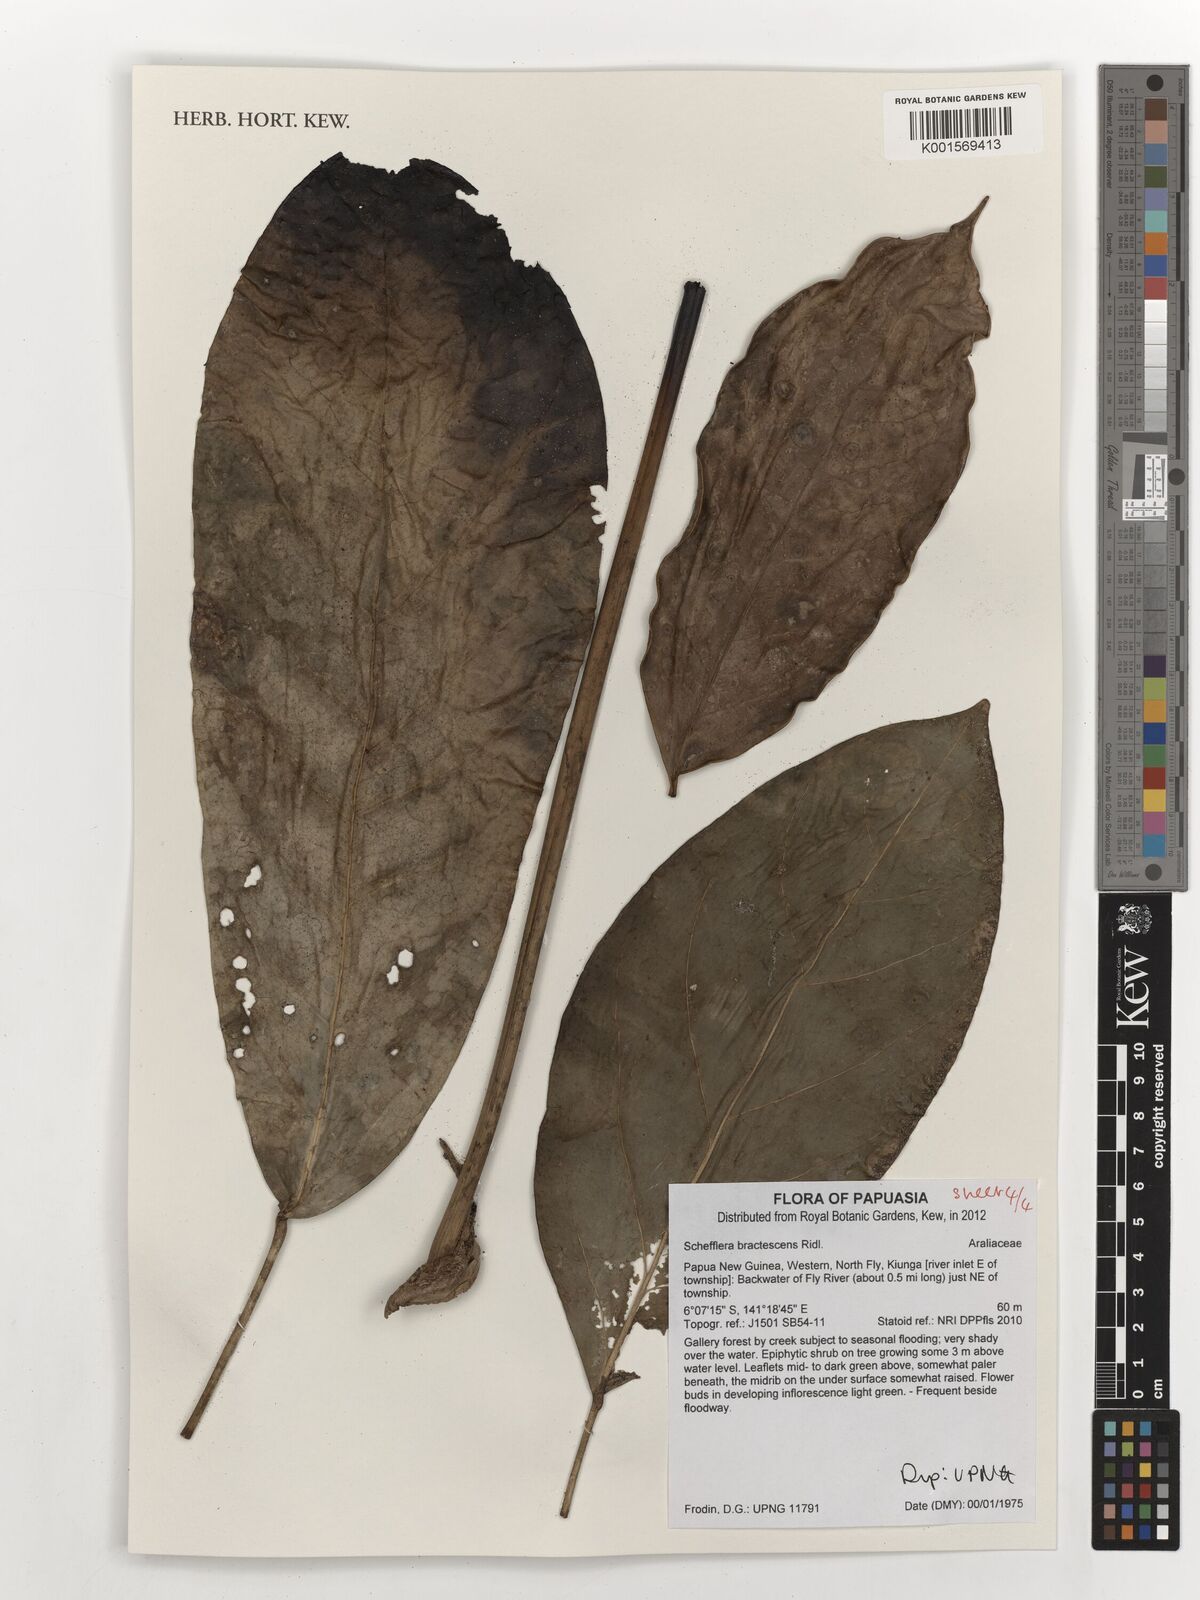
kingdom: Plantae
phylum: Tracheophyta
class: Magnoliopsida
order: Apiales
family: Araliaceae
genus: Heptapleurum
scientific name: Heptapleurum bractescens
